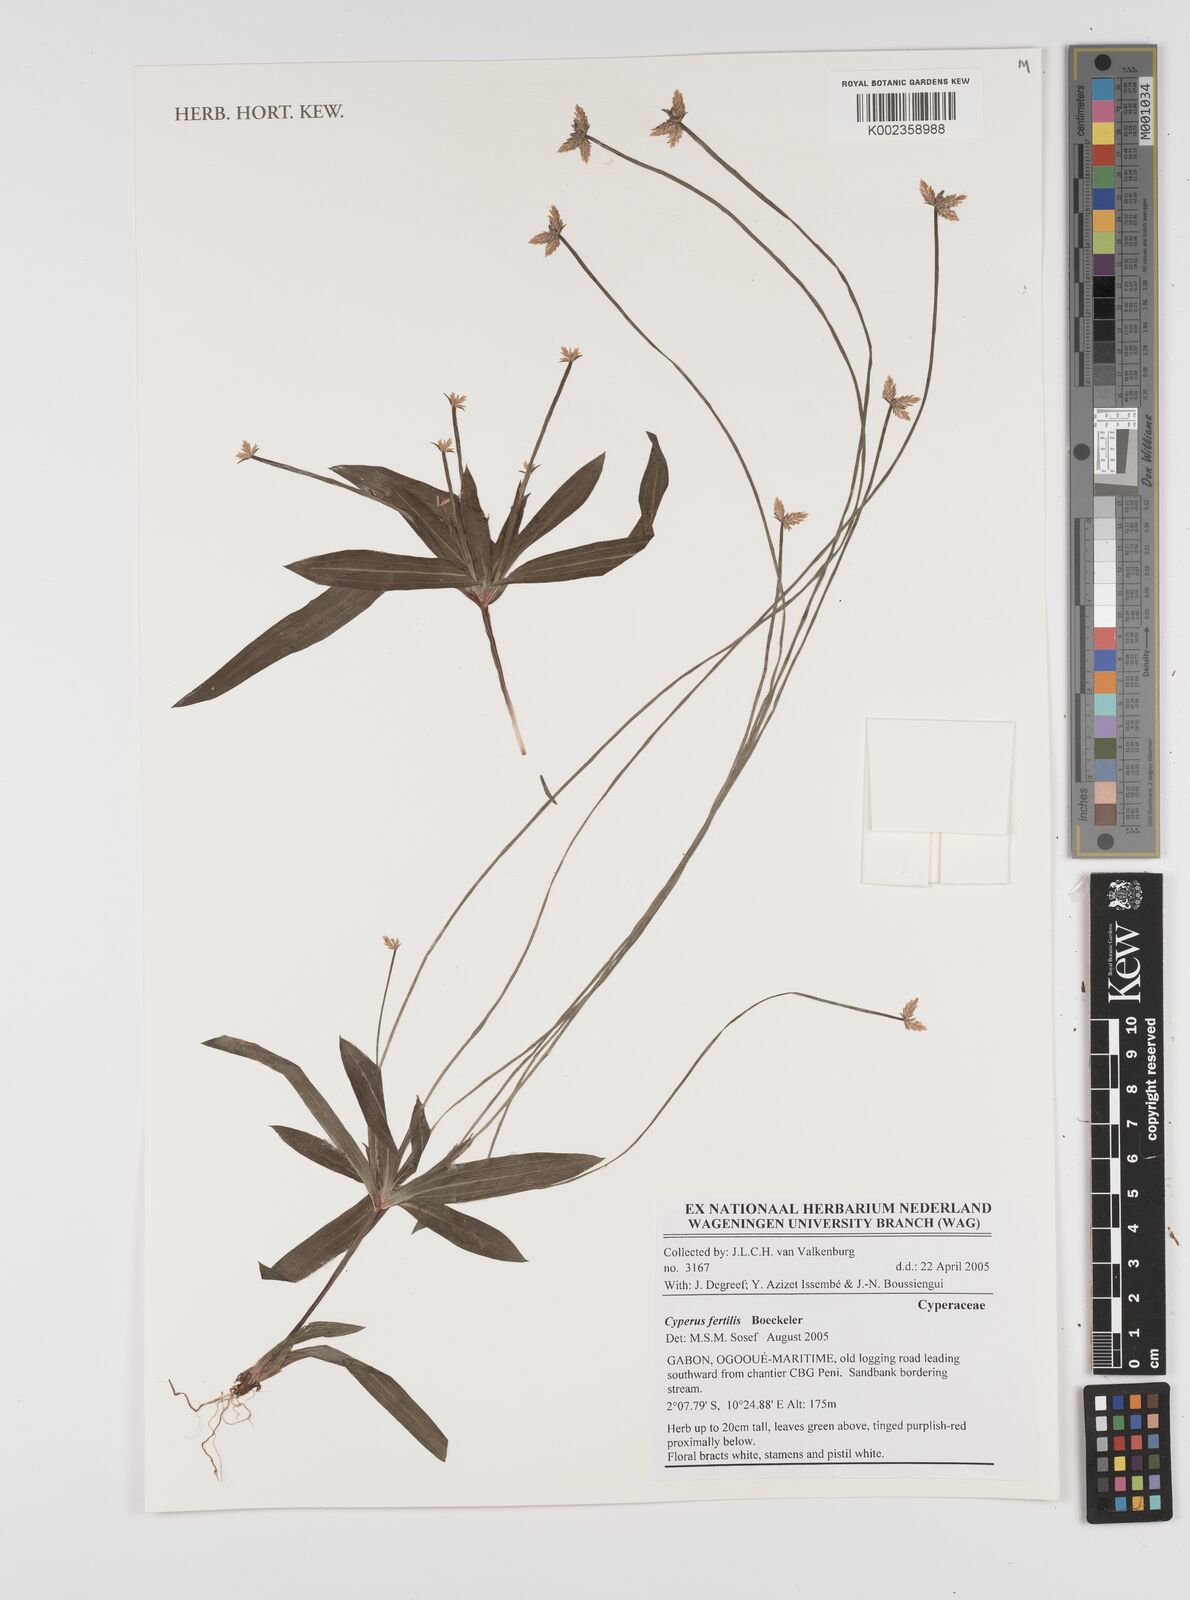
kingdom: Plantae
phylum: Tracheophyta
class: Liliopsida
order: Poales
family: Cyperaceae
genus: Cyperus
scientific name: Cyperus fertilis
